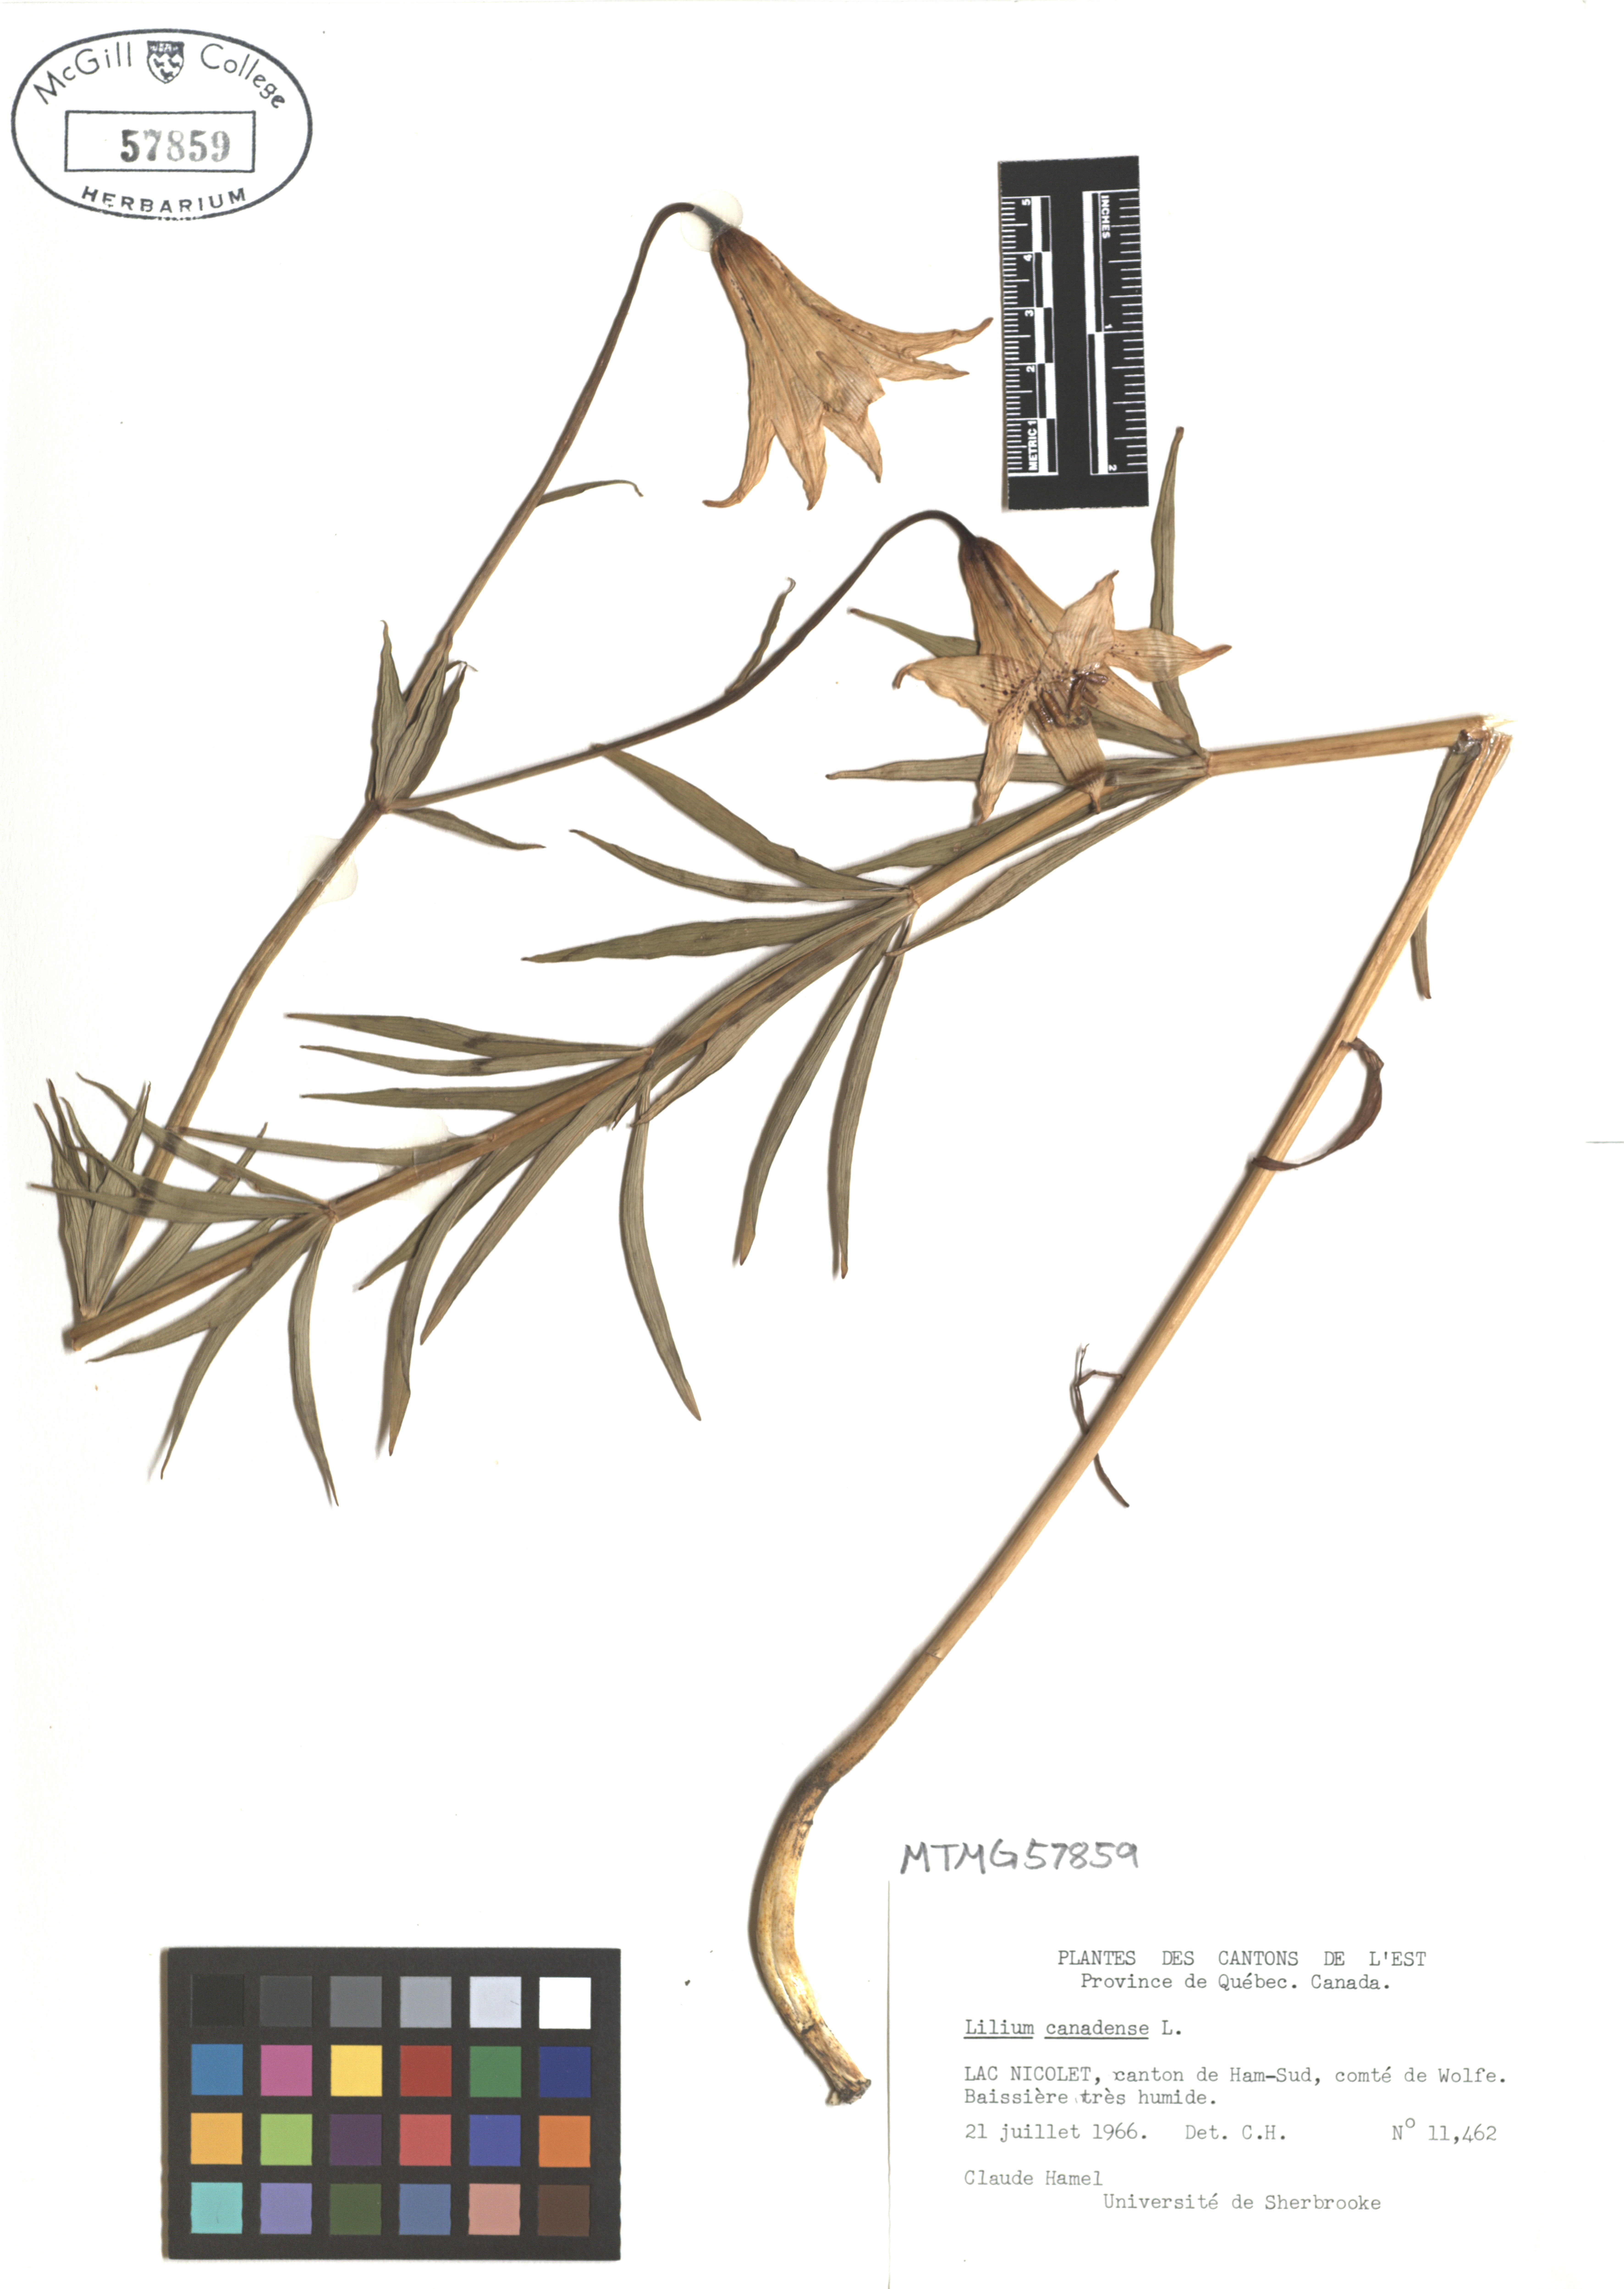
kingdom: Plantae
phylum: Tracheophyta
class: Liliopsida
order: Liliales
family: Liliaceae
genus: Lilium
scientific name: Lilium canadense
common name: Canada lily
